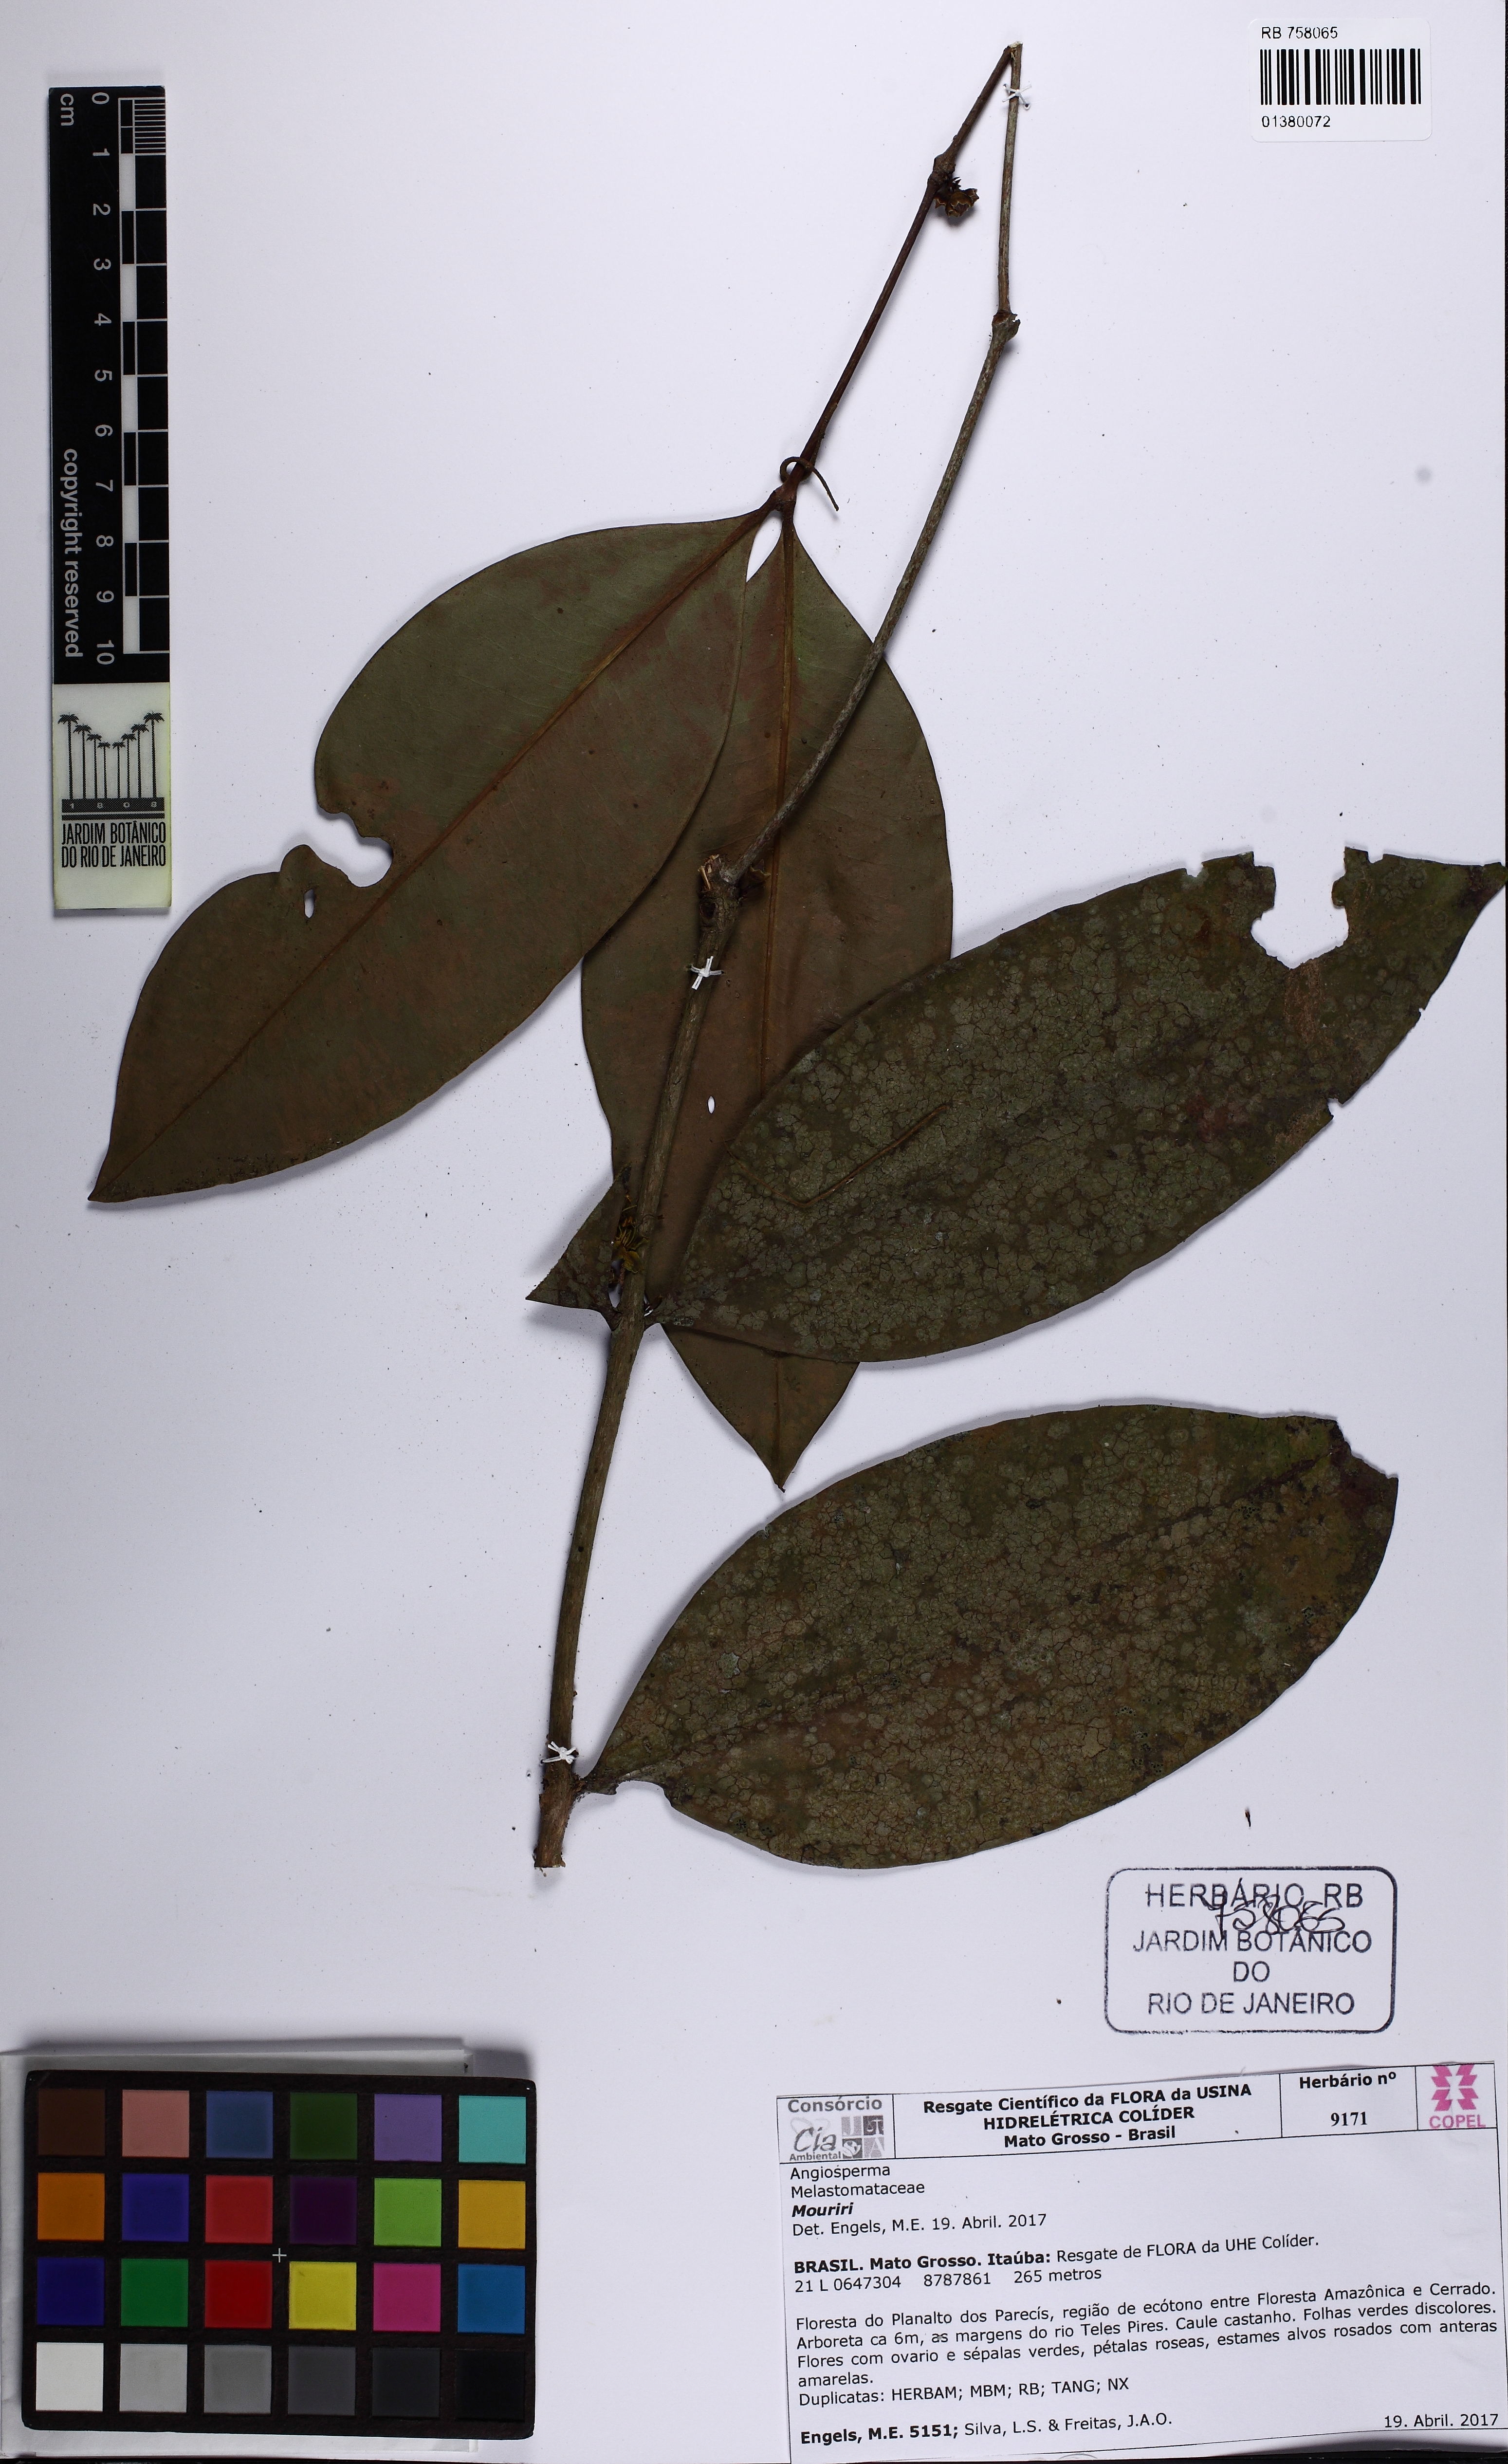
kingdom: Plantae
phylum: Tracheophyta
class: Magnoliopsida
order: Myrtales
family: Melastomataceae
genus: Mouriri
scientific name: Mouriri apiranga
